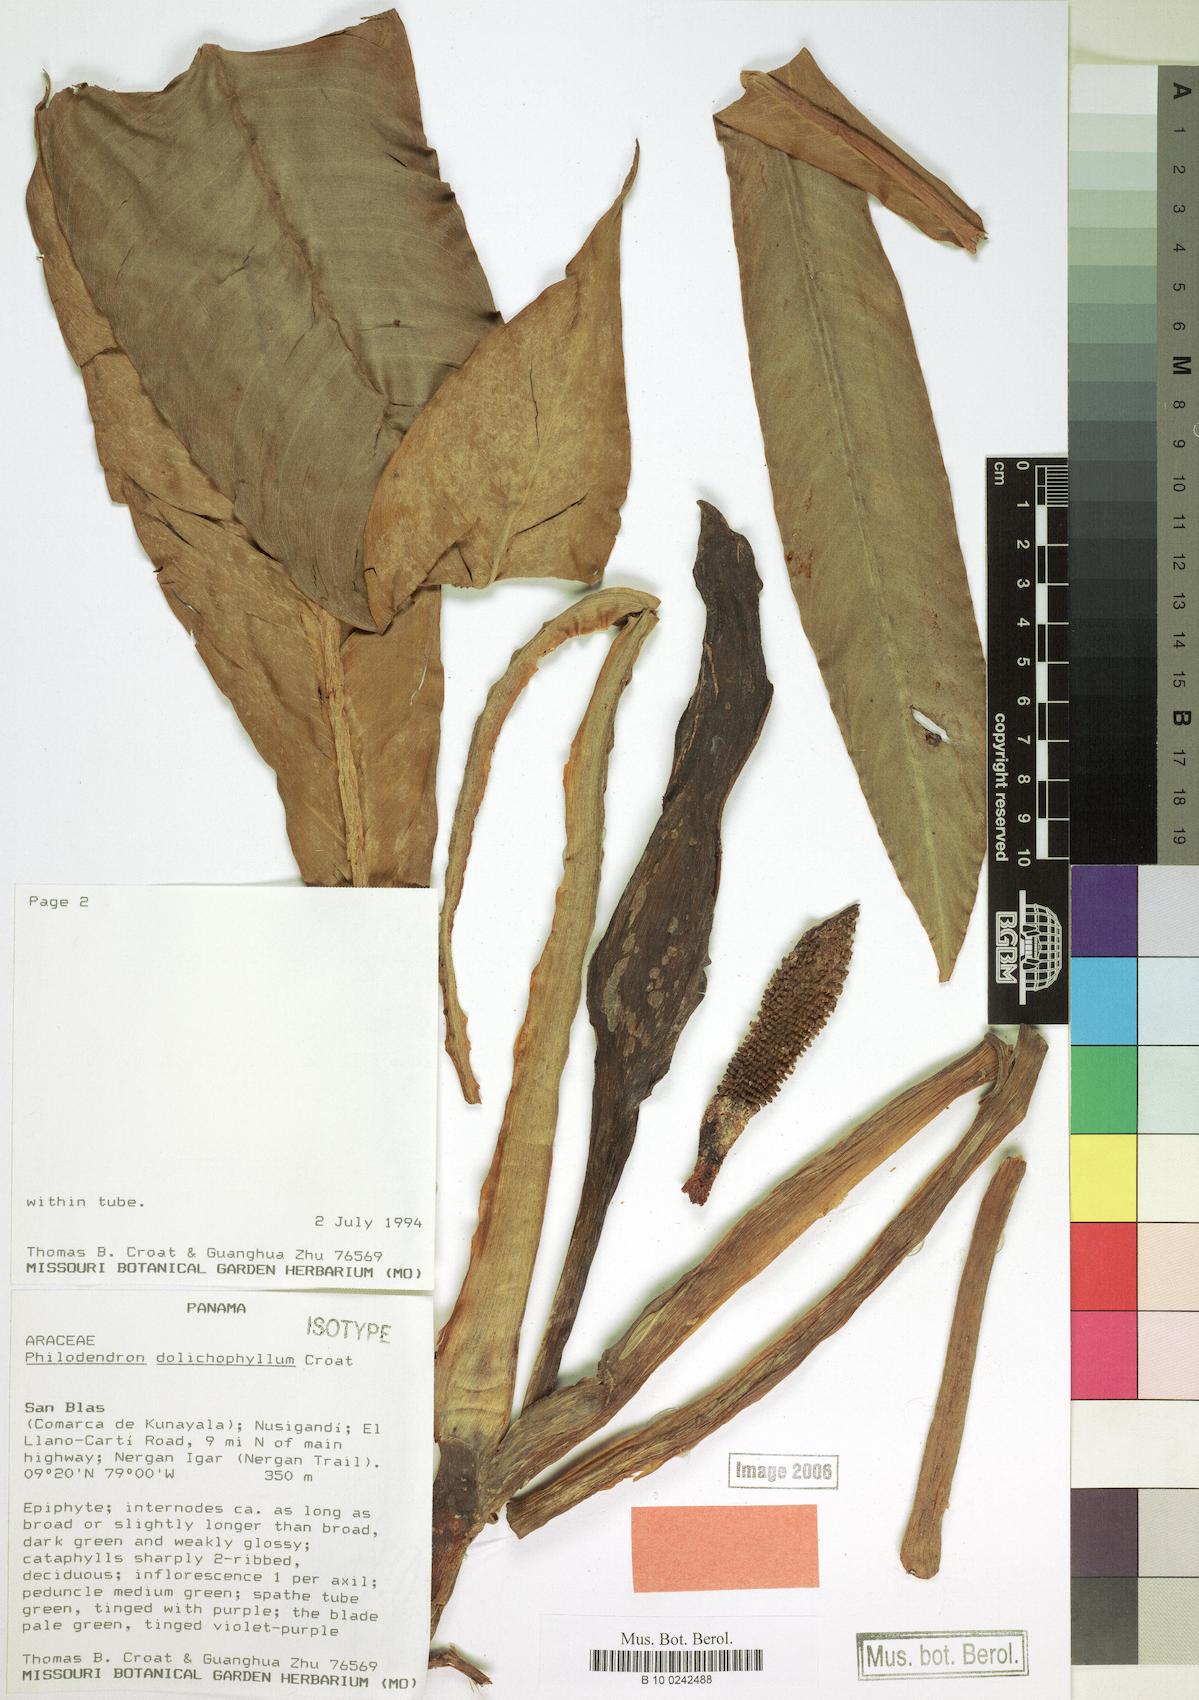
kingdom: Plantae
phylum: Tracheophyta
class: Liliopsida
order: Alismatales
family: Araceae
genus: Philodendron
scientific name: Philodendron dolichophyllum
